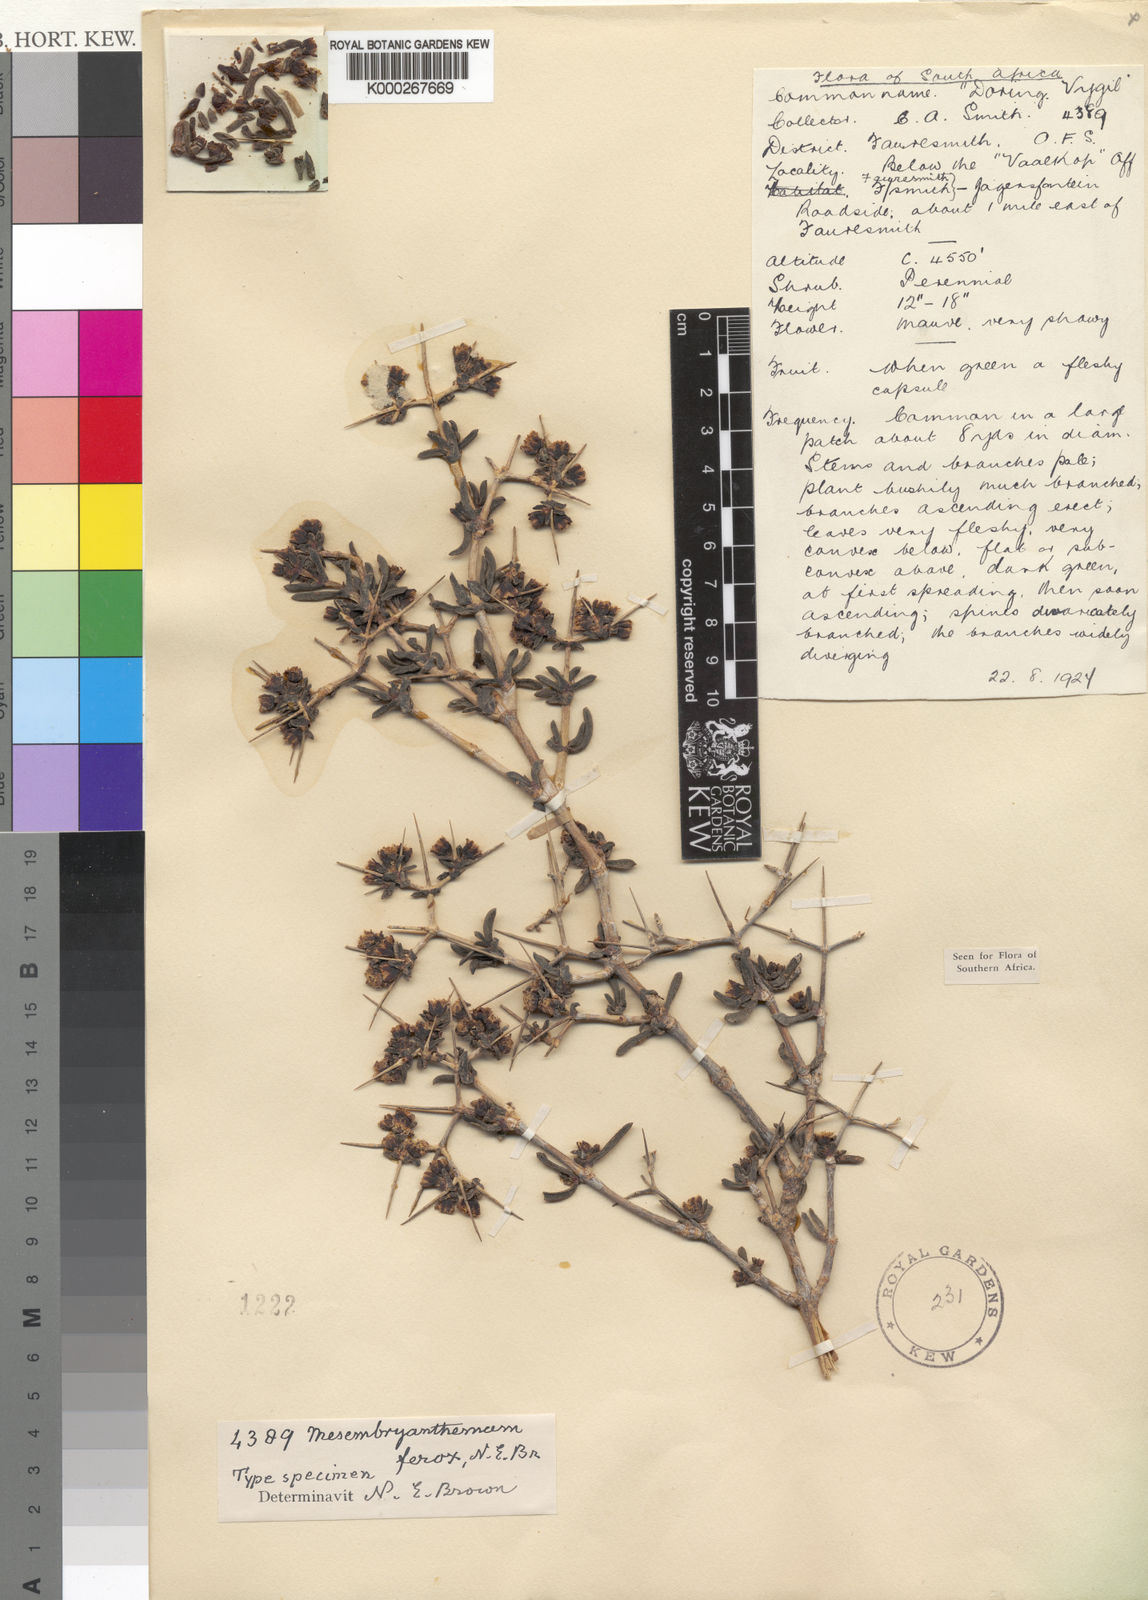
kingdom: Plantae
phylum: Tracheophyta
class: Magnoliopsida
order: Caryophyllales
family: Aizoaceae
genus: Ruschia
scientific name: Ruschia
